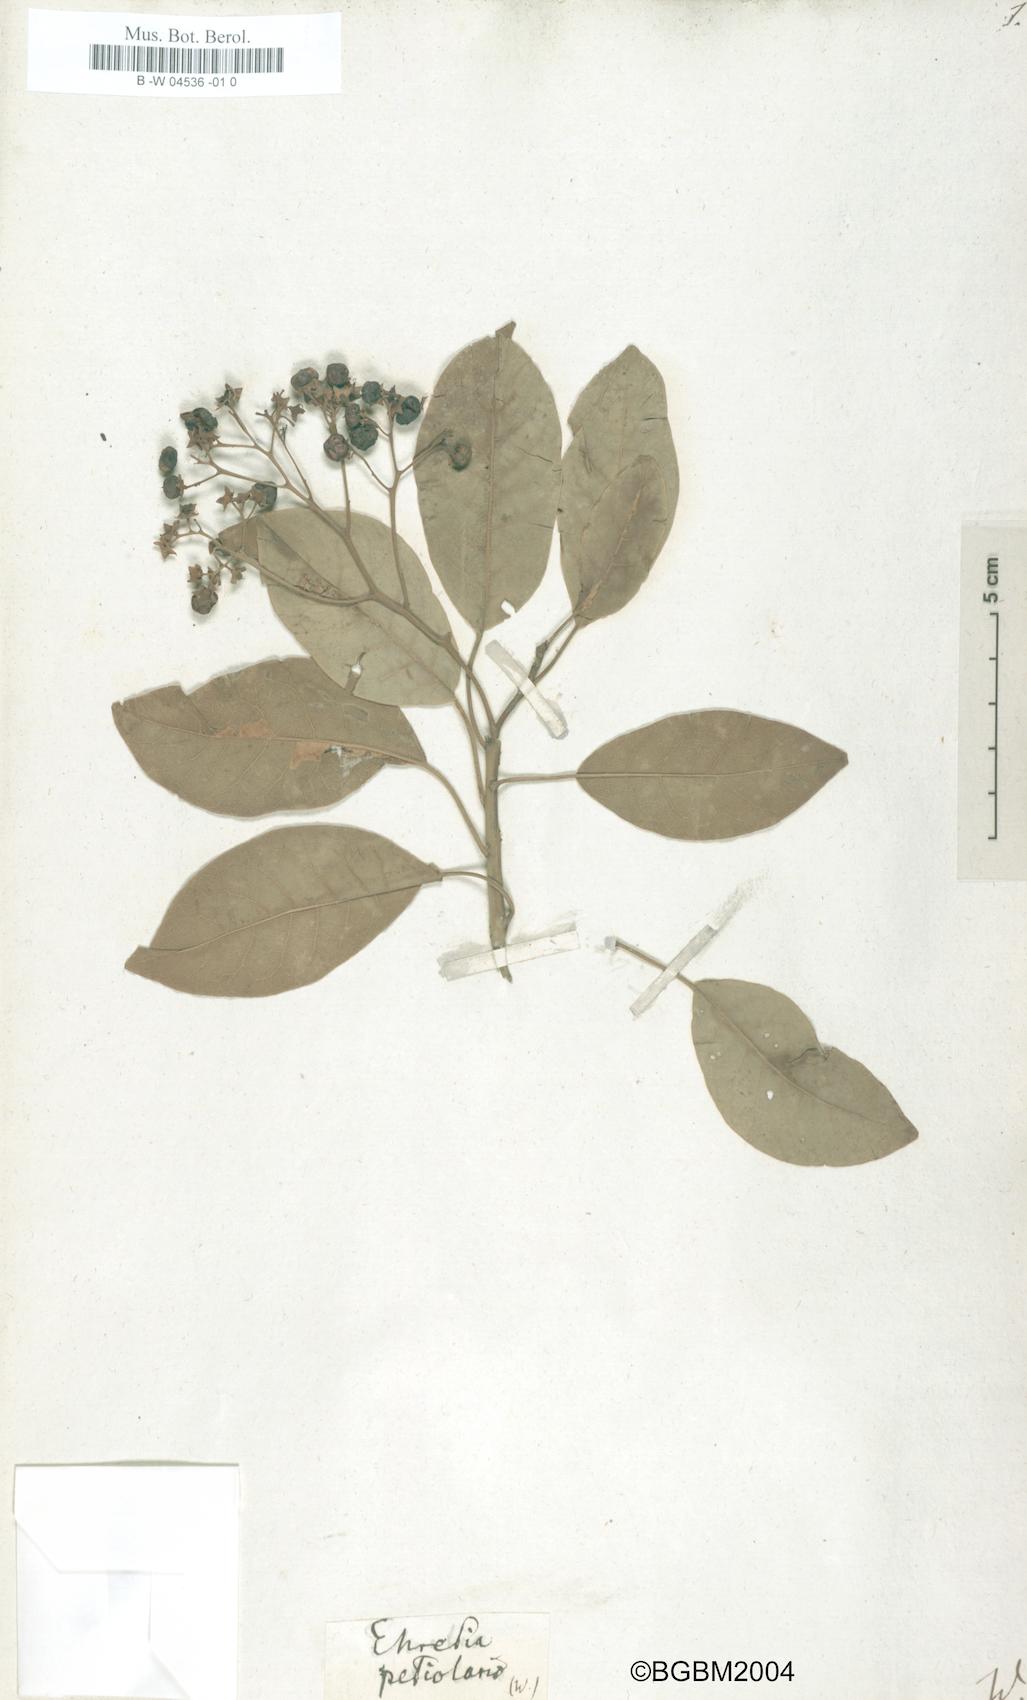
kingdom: Plantae
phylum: Tracheophyta
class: Magnoliopsida
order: Boraginales
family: Ehretiaceae
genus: Bourreria
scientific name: Bourreria petiolaris
